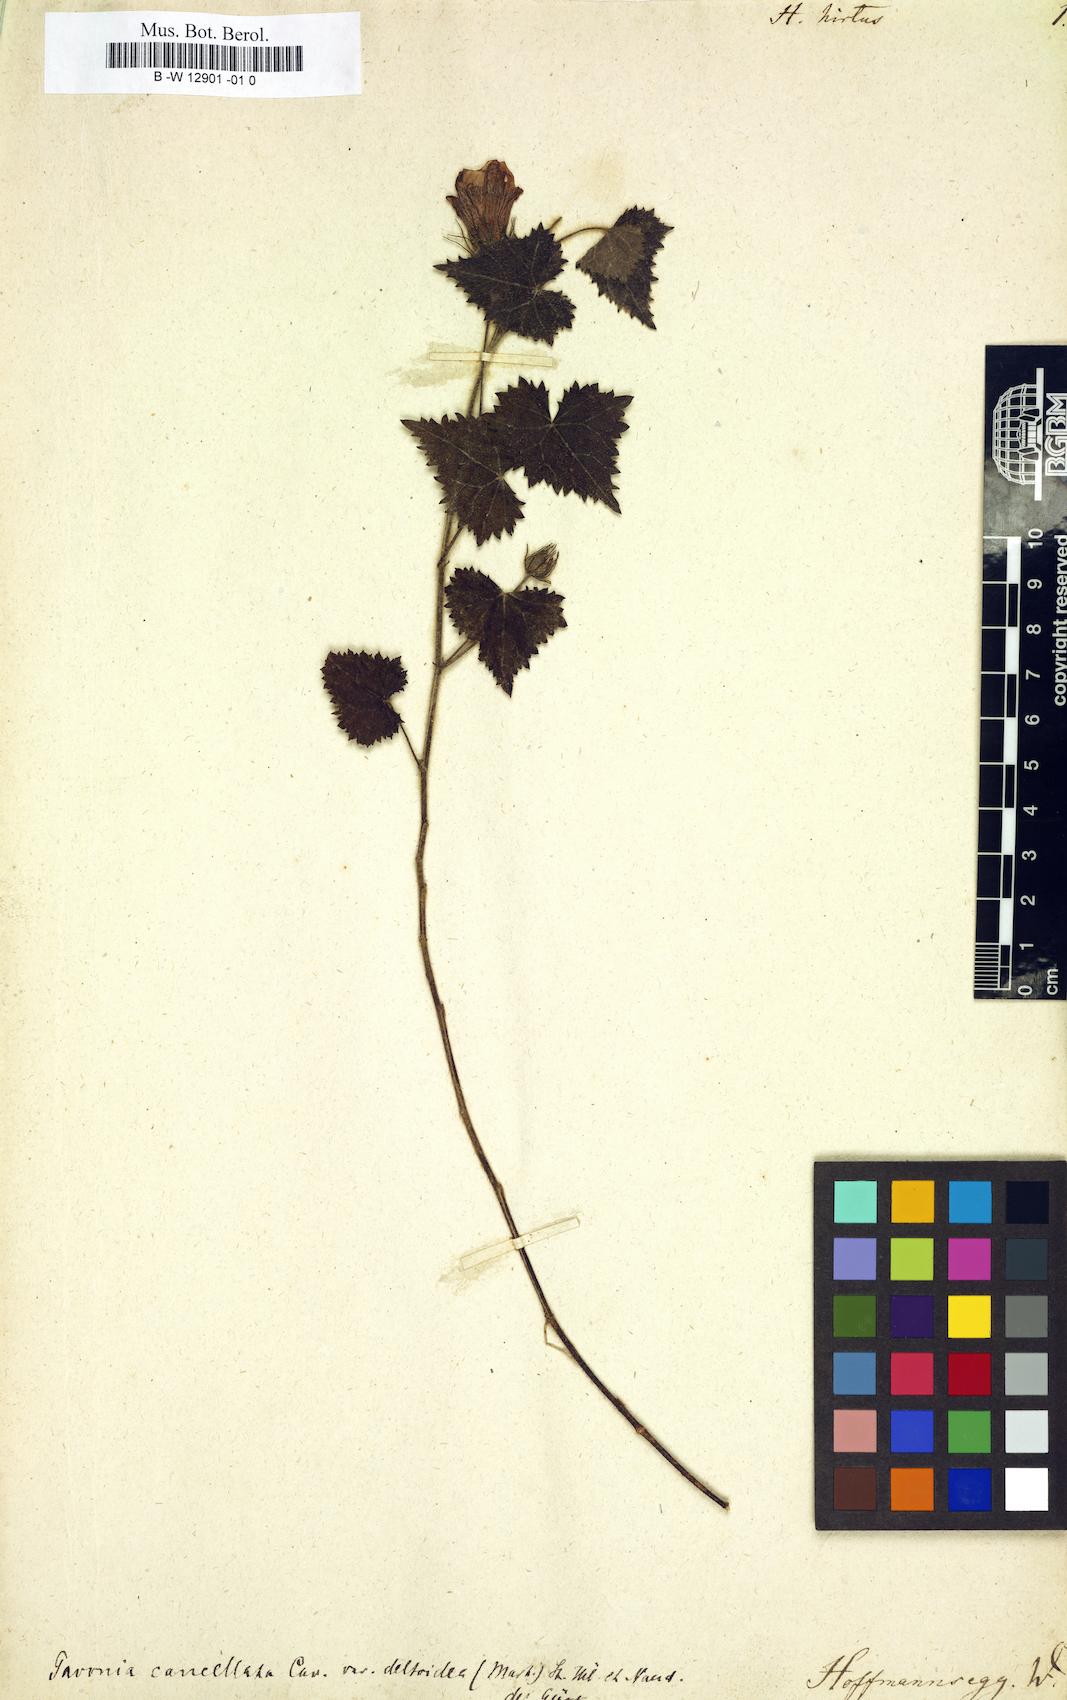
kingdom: Plantae
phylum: Tracheophyta
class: Magnoliopsida
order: Malvales
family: Malvaceae
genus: Hibiscus
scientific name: Hibiscus hirtus
